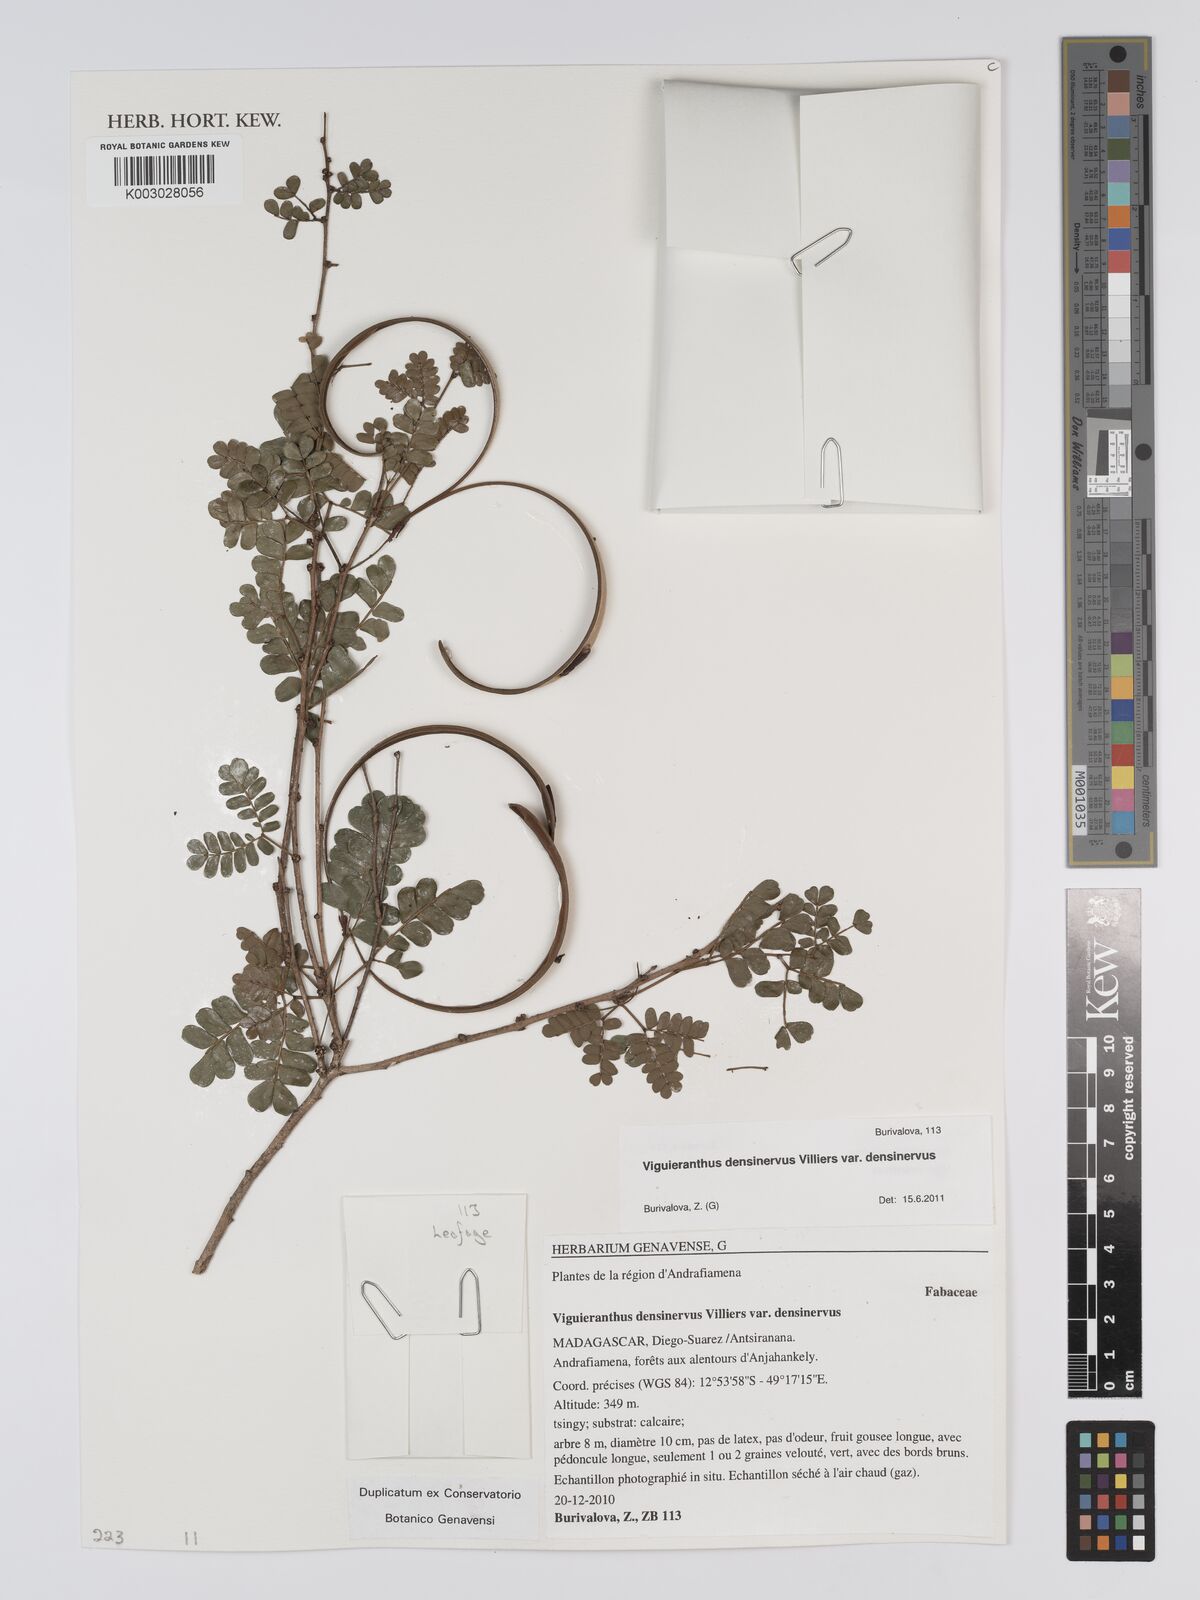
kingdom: Plantae
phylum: Tracheophyta
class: Magnoliopsida
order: Fabales
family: Fabaceae
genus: Viguieranthus
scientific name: Viguieranthus densinervus
